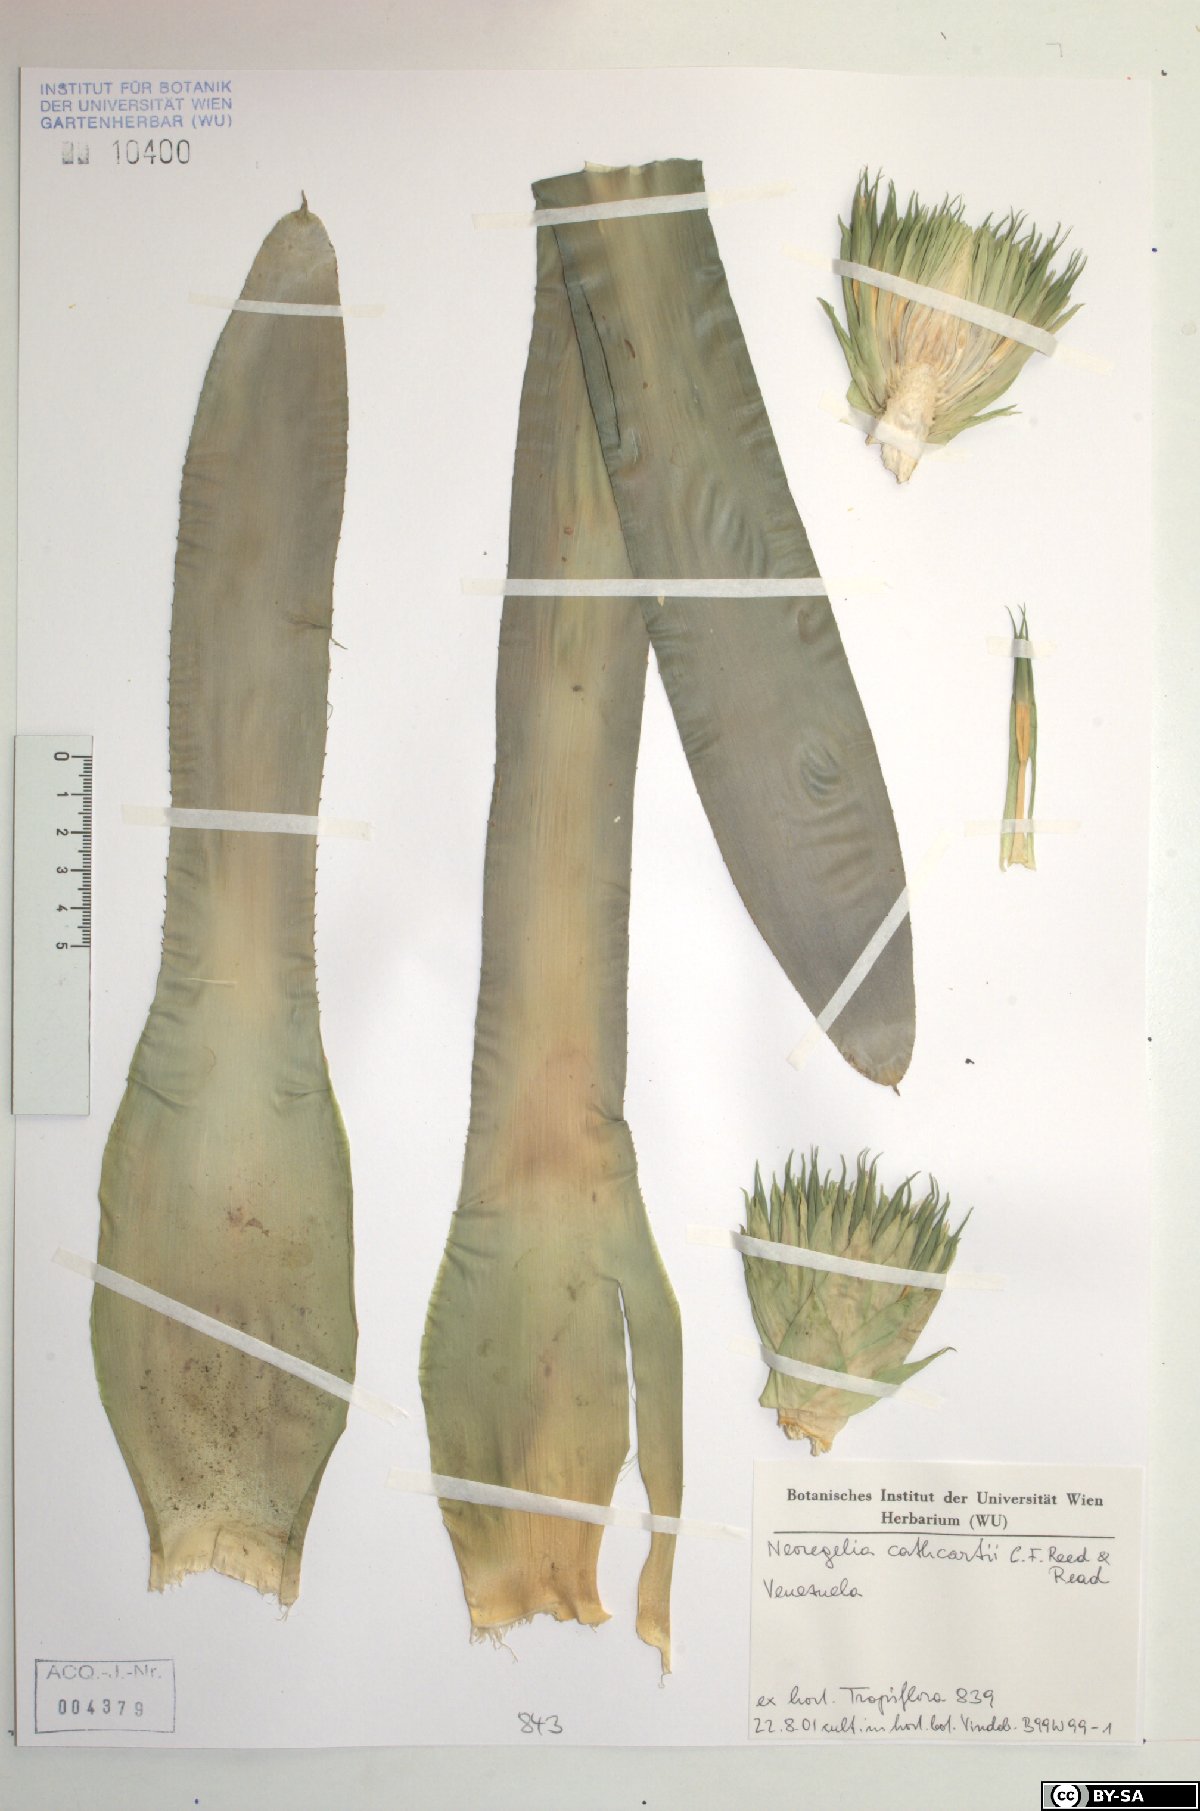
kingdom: Plantae
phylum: Tracheophyta
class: Liliopsida
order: Poales
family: Bromeliaceae
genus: Neoregelia
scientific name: Neoregelia cathcartii
